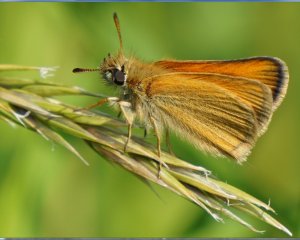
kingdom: Animalia
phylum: Arthropoda
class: Insecta
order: Lepidoptera
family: Hesperiidae
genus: Thymelicus
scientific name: Thymelicus lineola
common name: European Skipper
